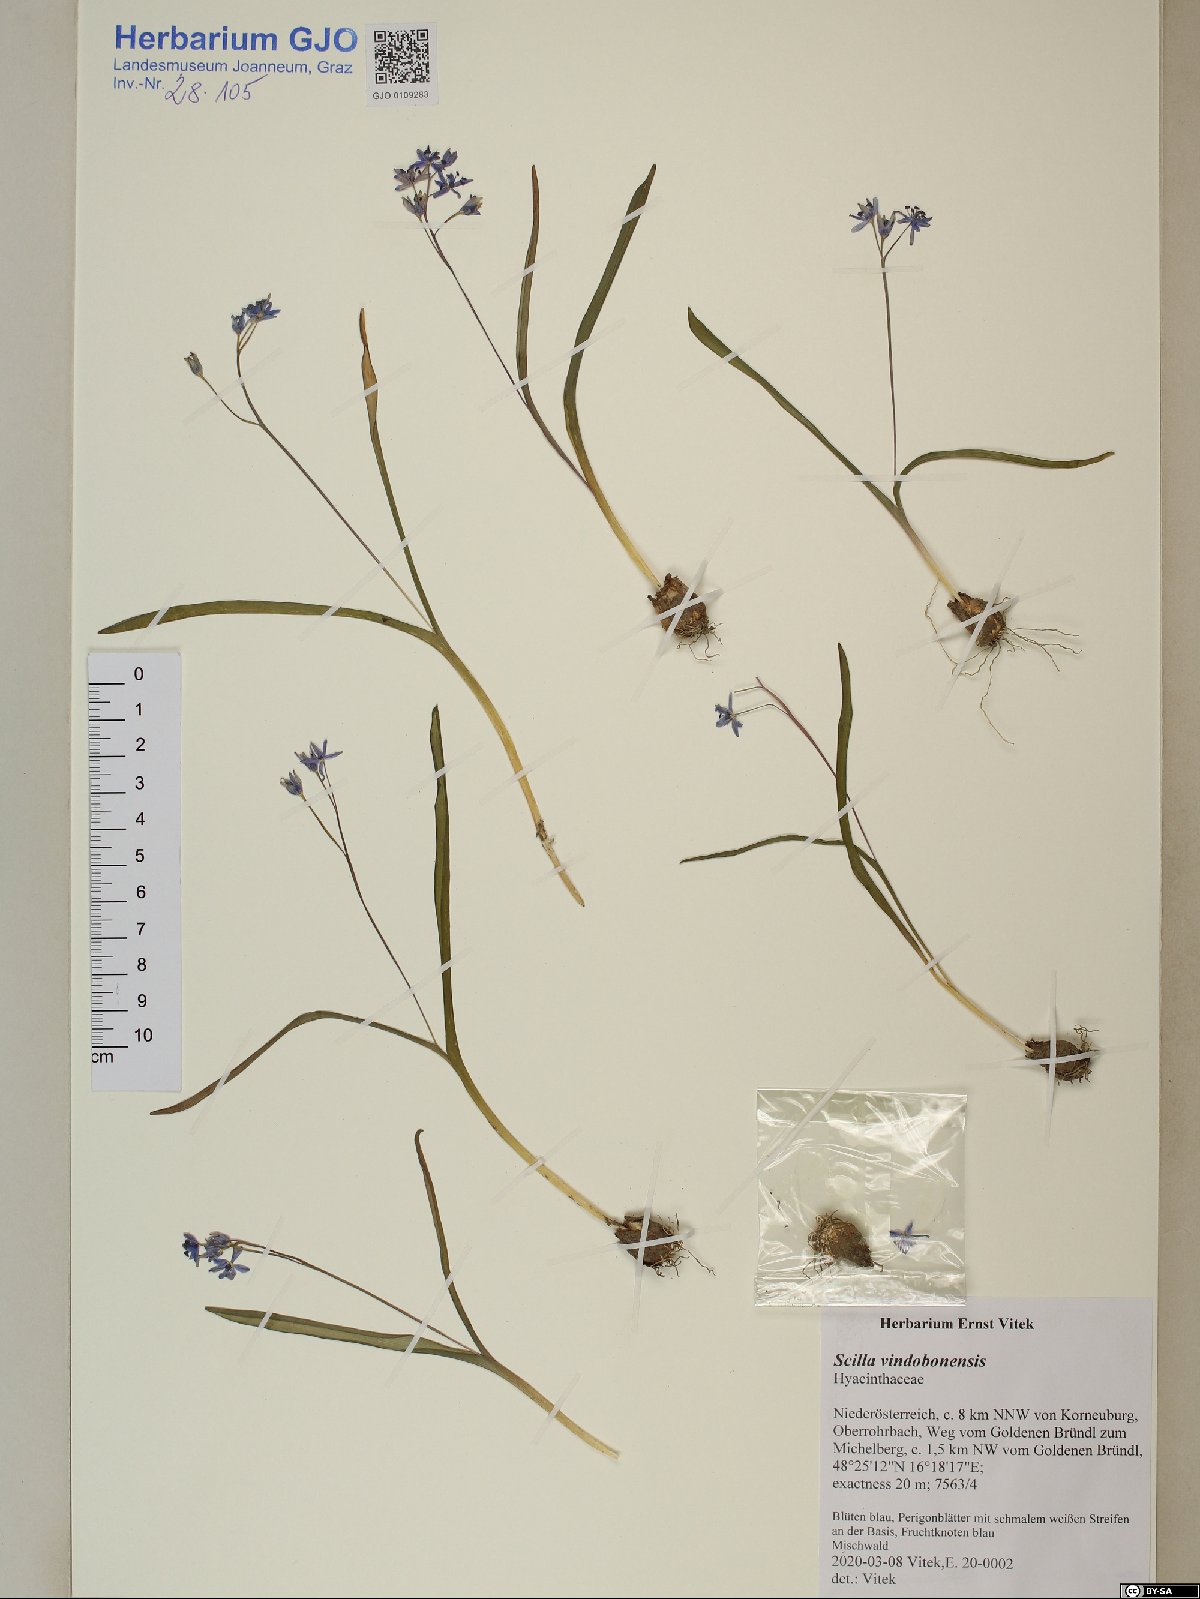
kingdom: Plantae
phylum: Tracheophyta
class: Liliopsida
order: Asparagales
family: Asparagaceae
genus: Scilla
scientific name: Scilla vindobonensis
